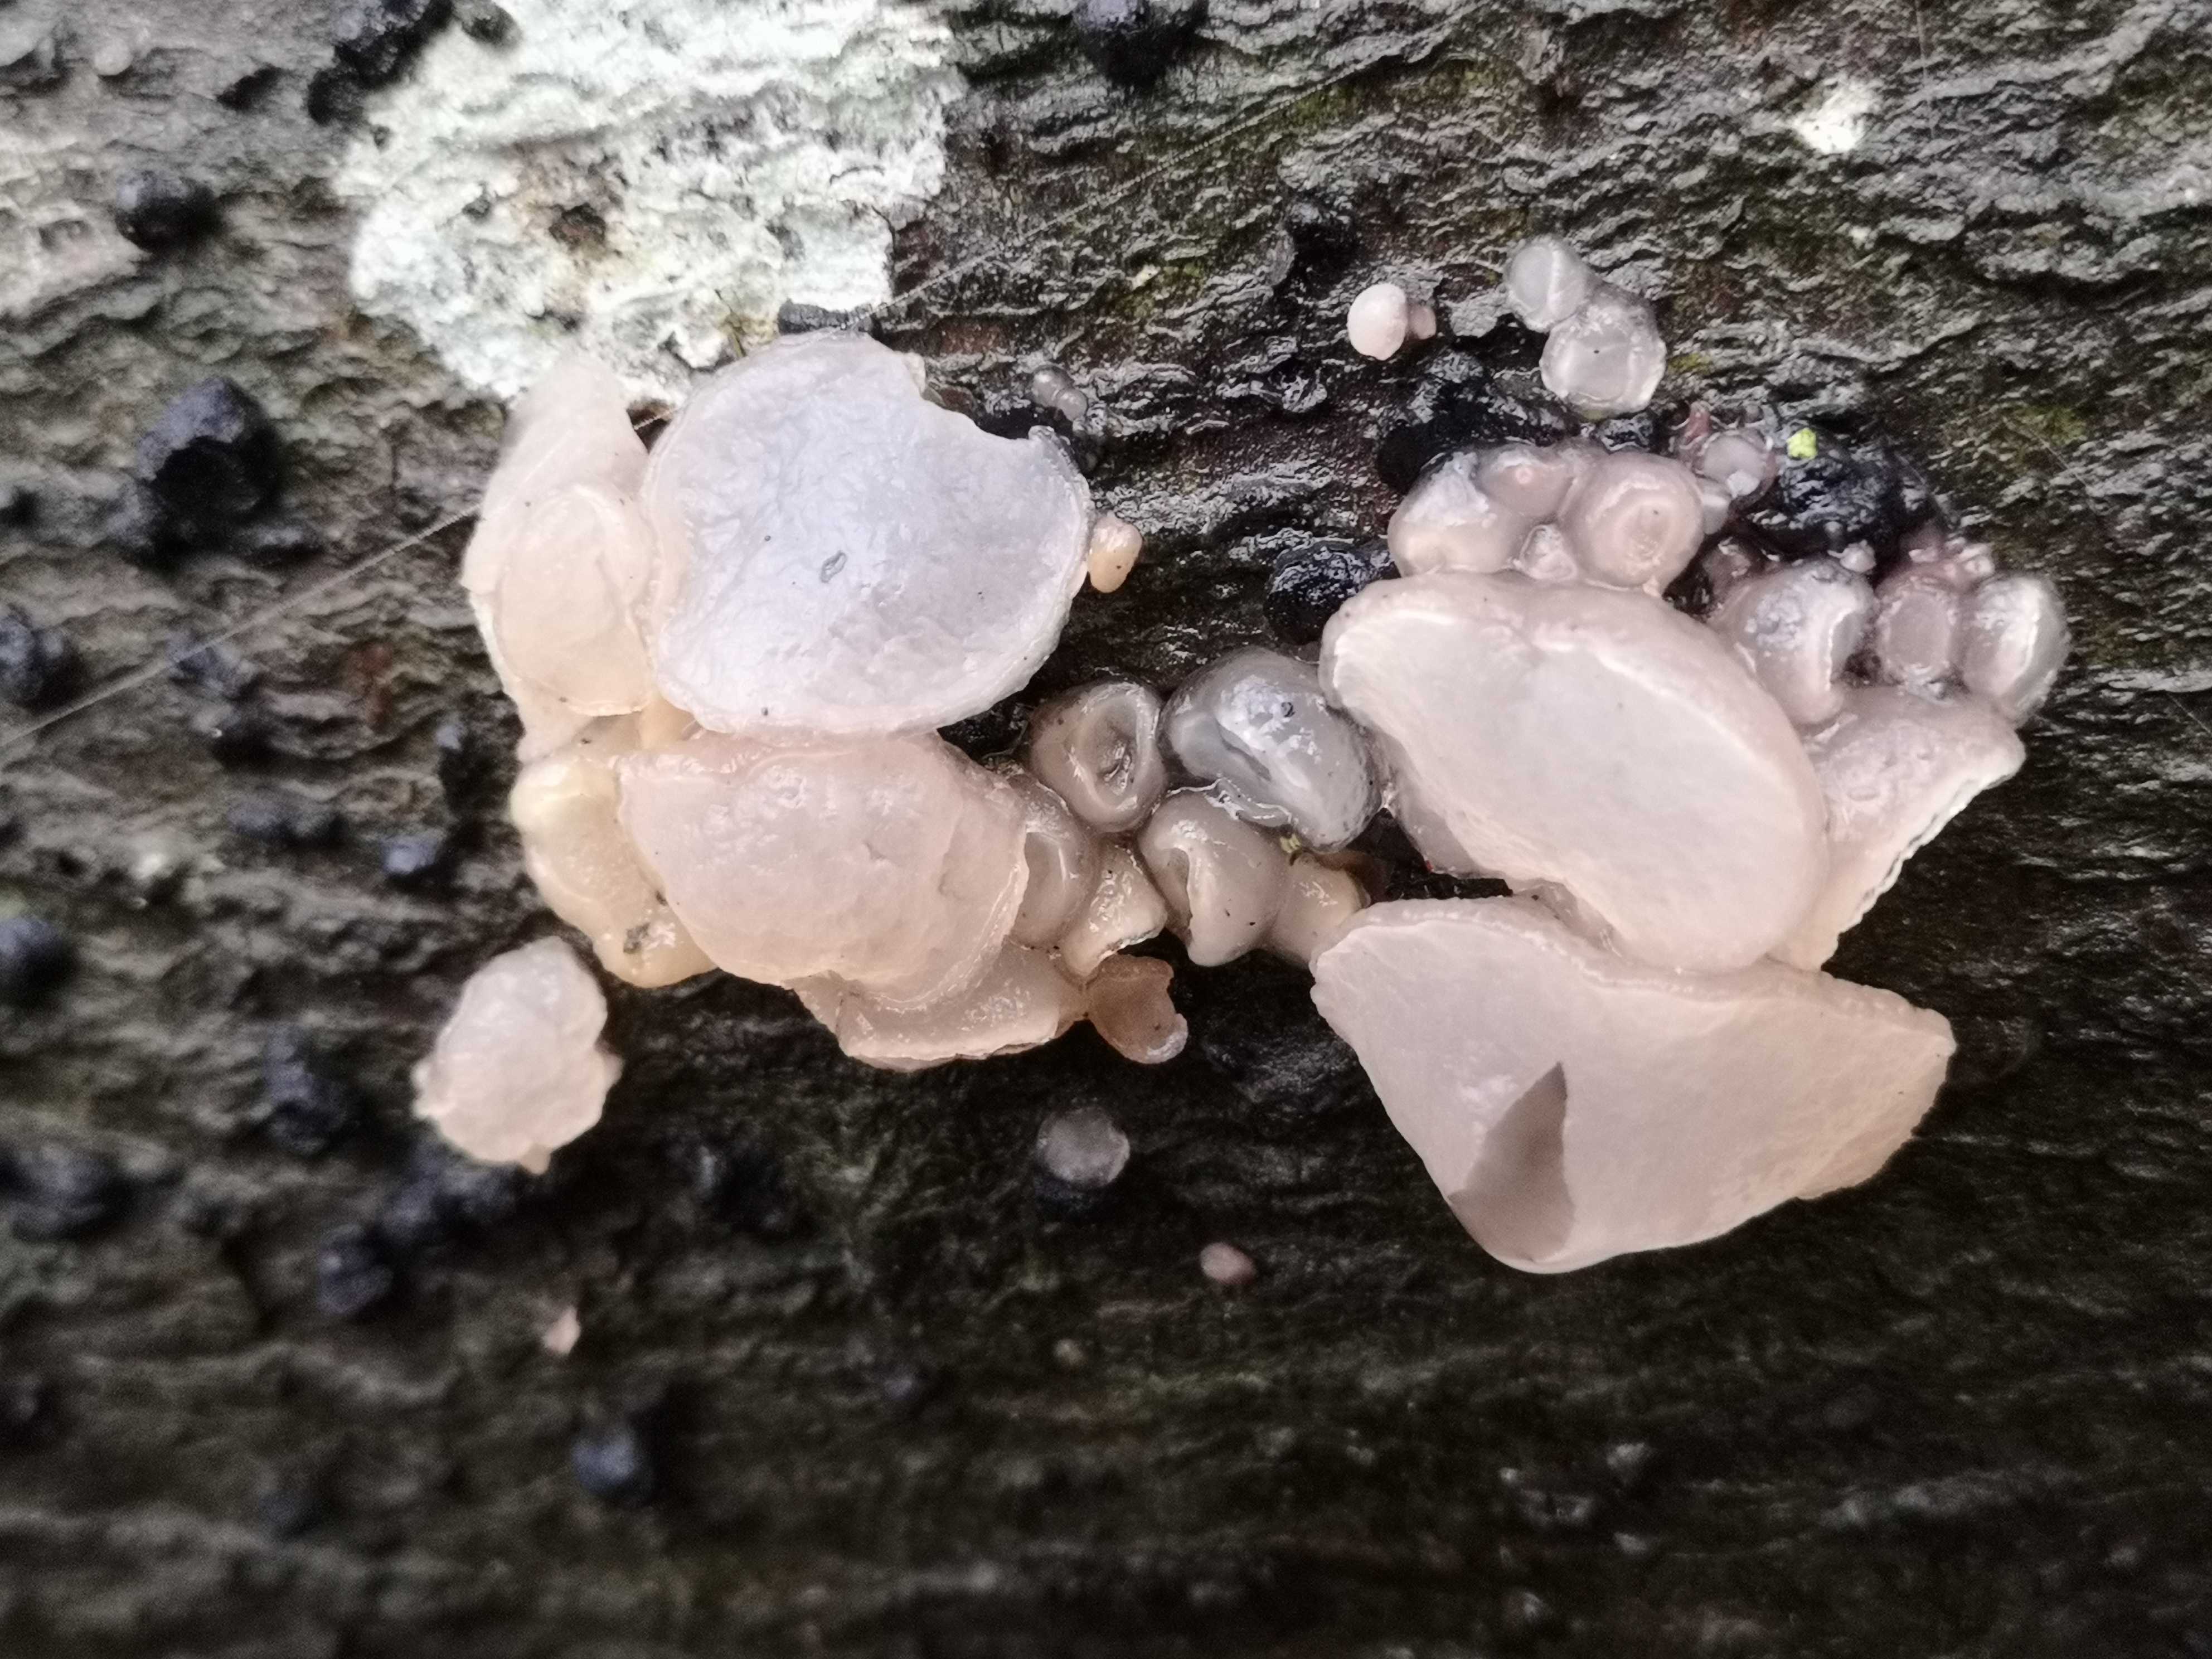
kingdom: Fungi
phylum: Ascomycota
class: Leotiomycetes
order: Helotiales
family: Gelatinodiscaceae
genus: Neobulgaria
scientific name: Neobulgaria pura
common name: bleg bævreskive
